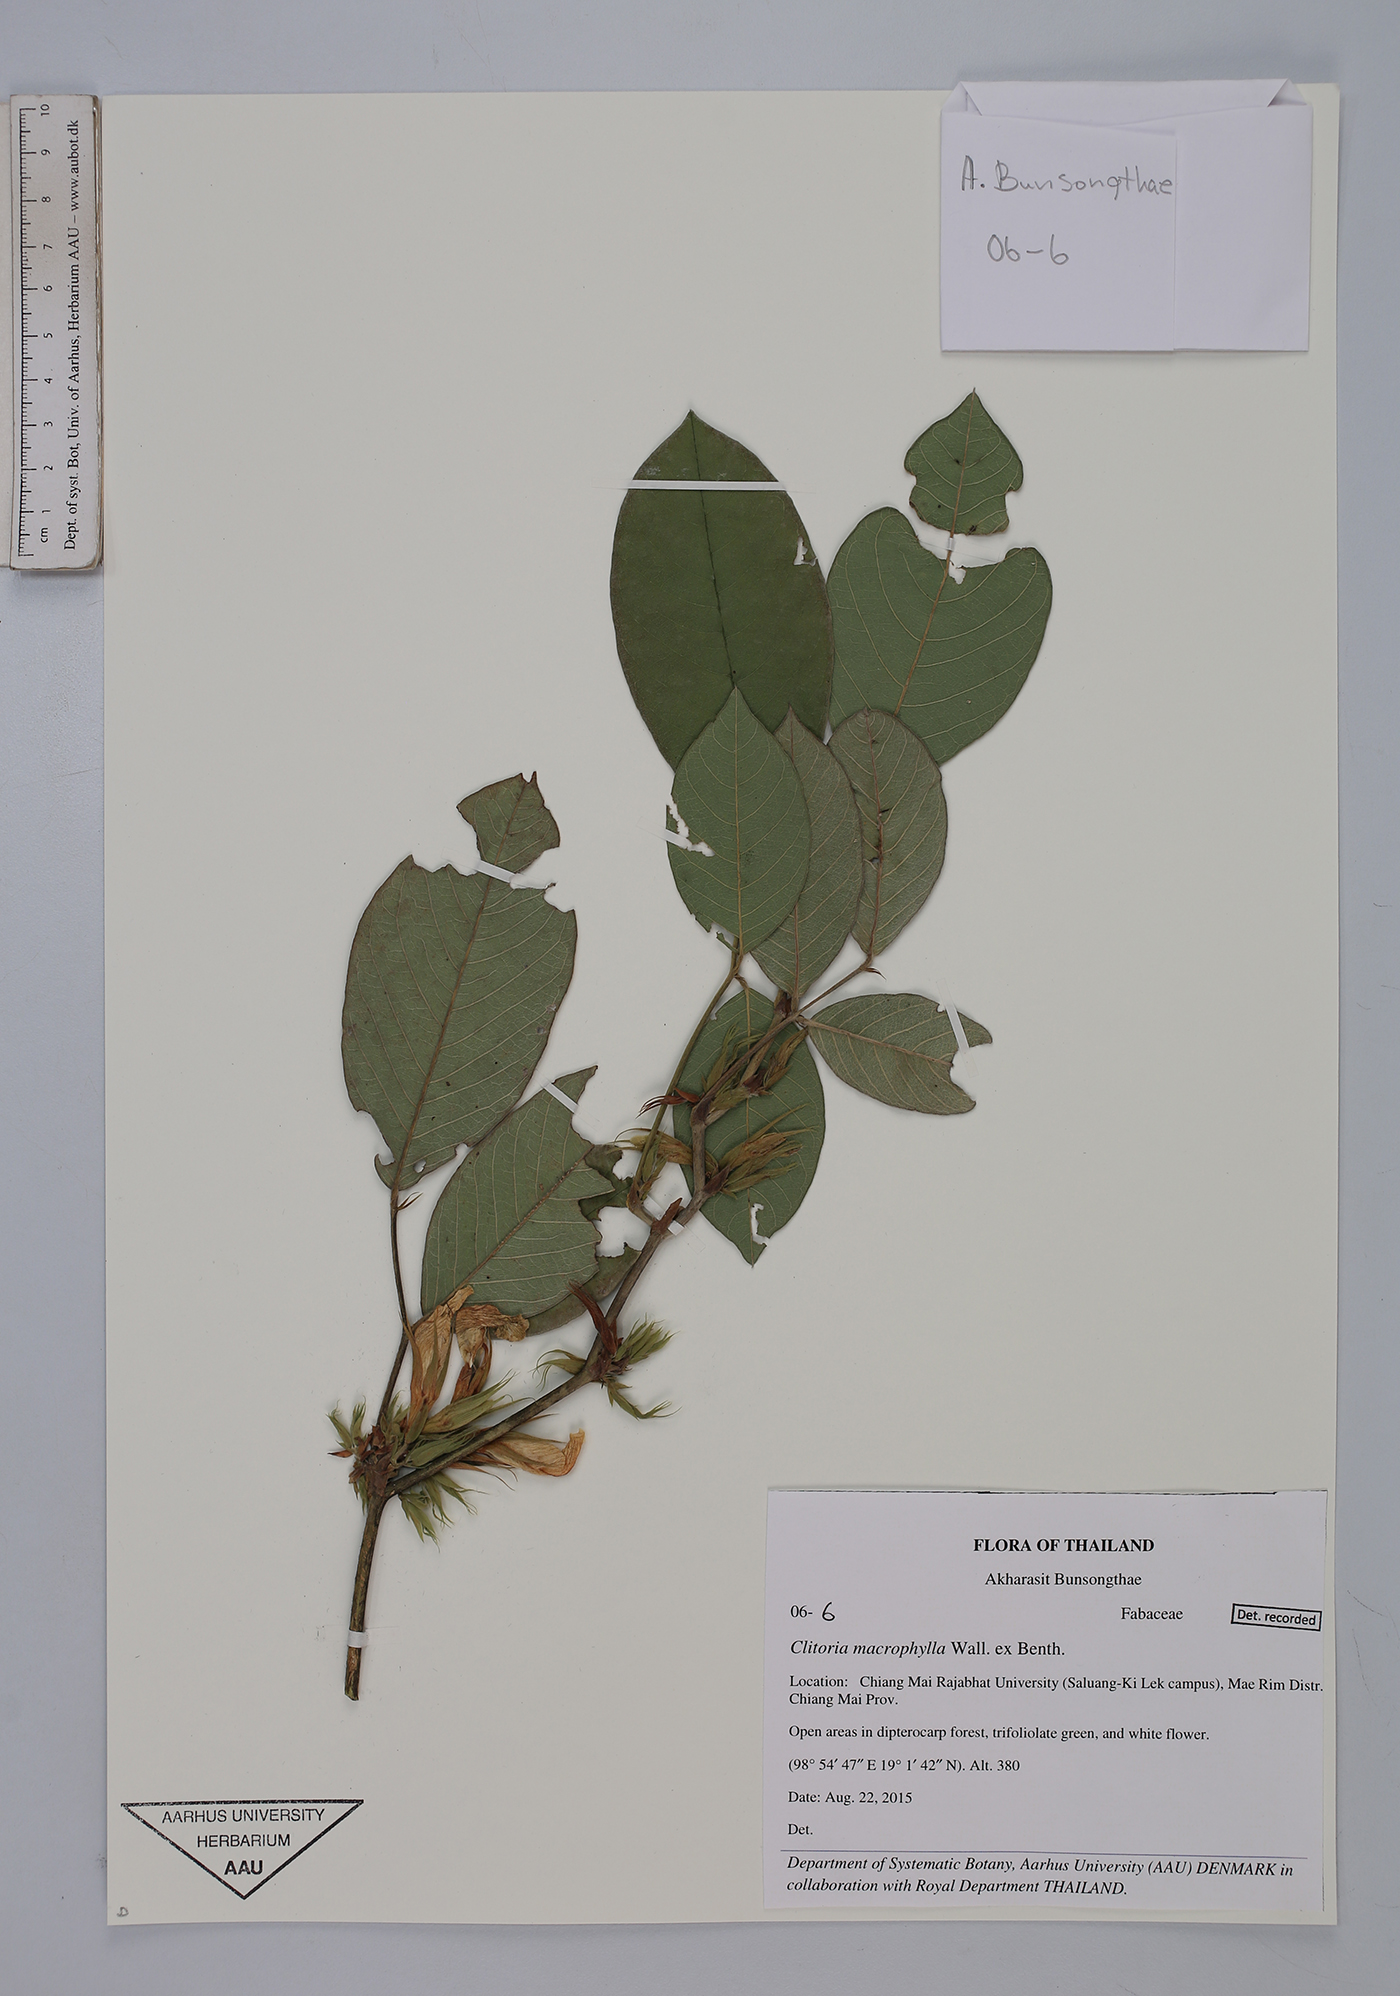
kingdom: Plantae
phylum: Tracheophyta
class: Magnoliopsida
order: Fabales
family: Fabaceae
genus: Clitoria
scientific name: Clitoria macrophylla
